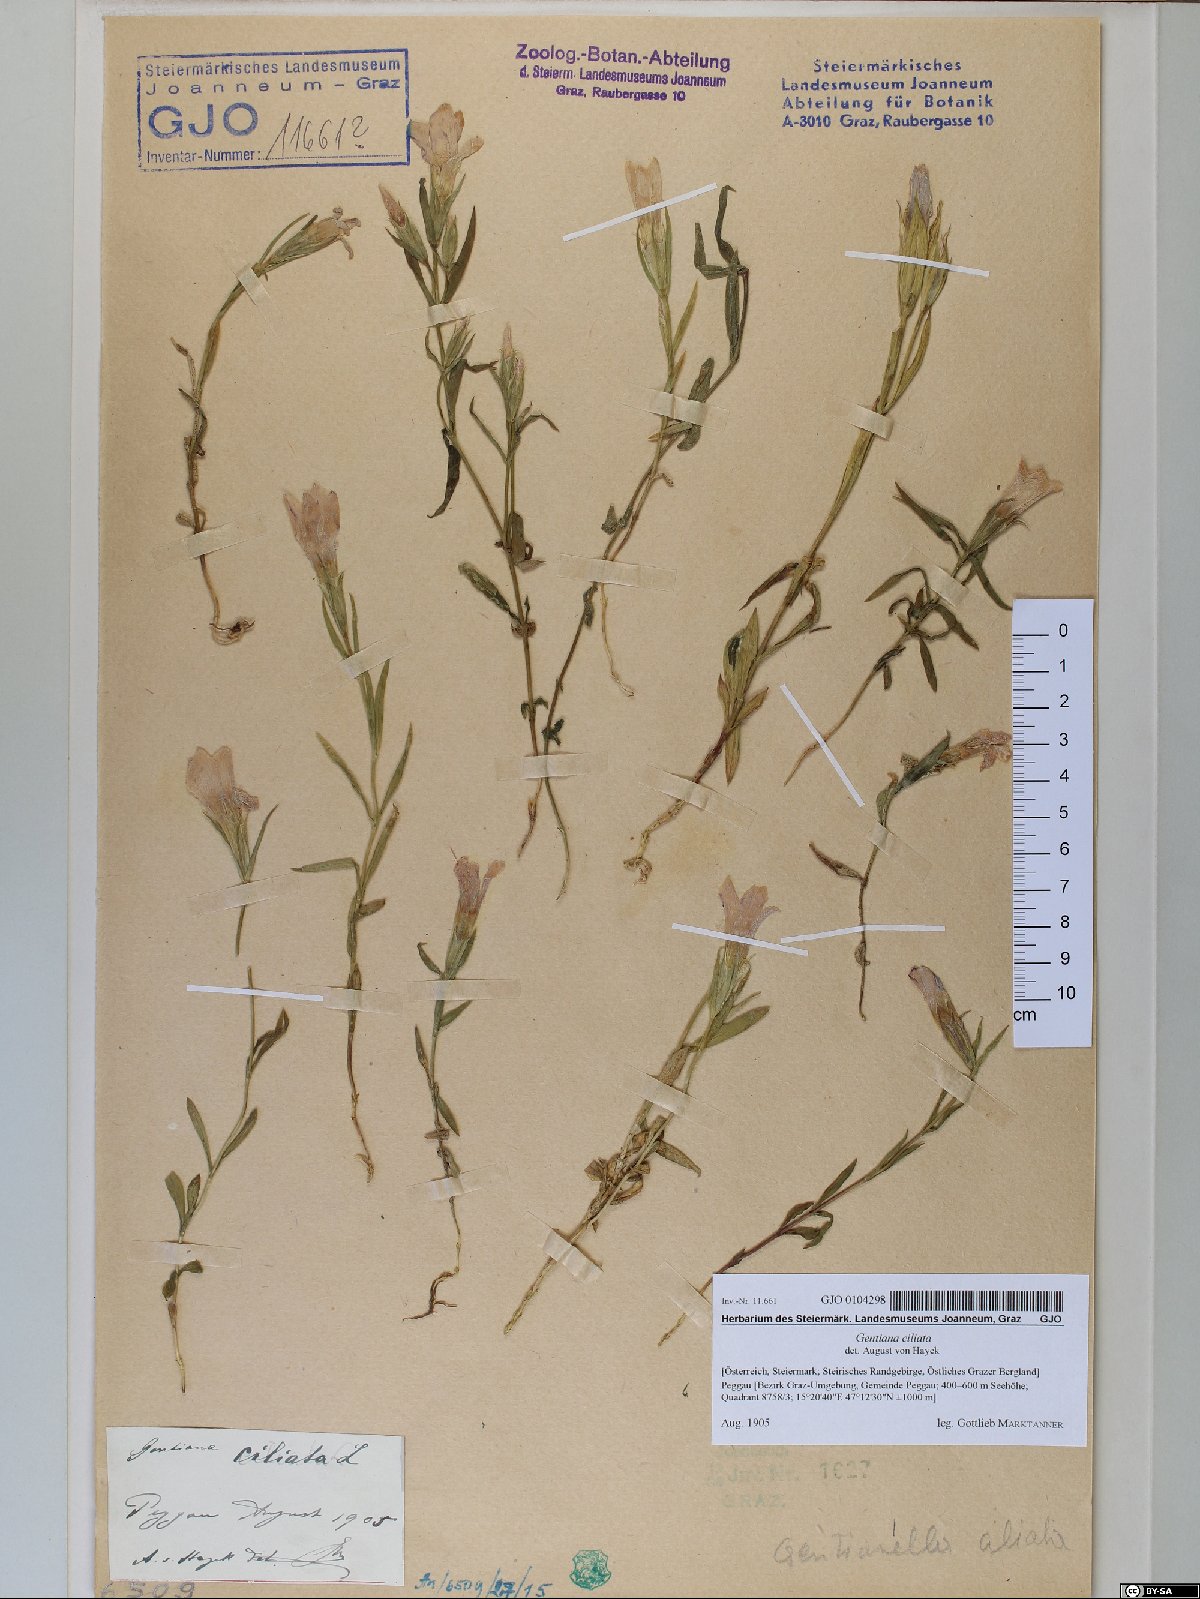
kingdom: Plantae
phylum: Tracheophyta
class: Magnoliopsida
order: Gentianales
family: Gentianaceae
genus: Gentianopsis
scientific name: Gentianopsis ciliata
